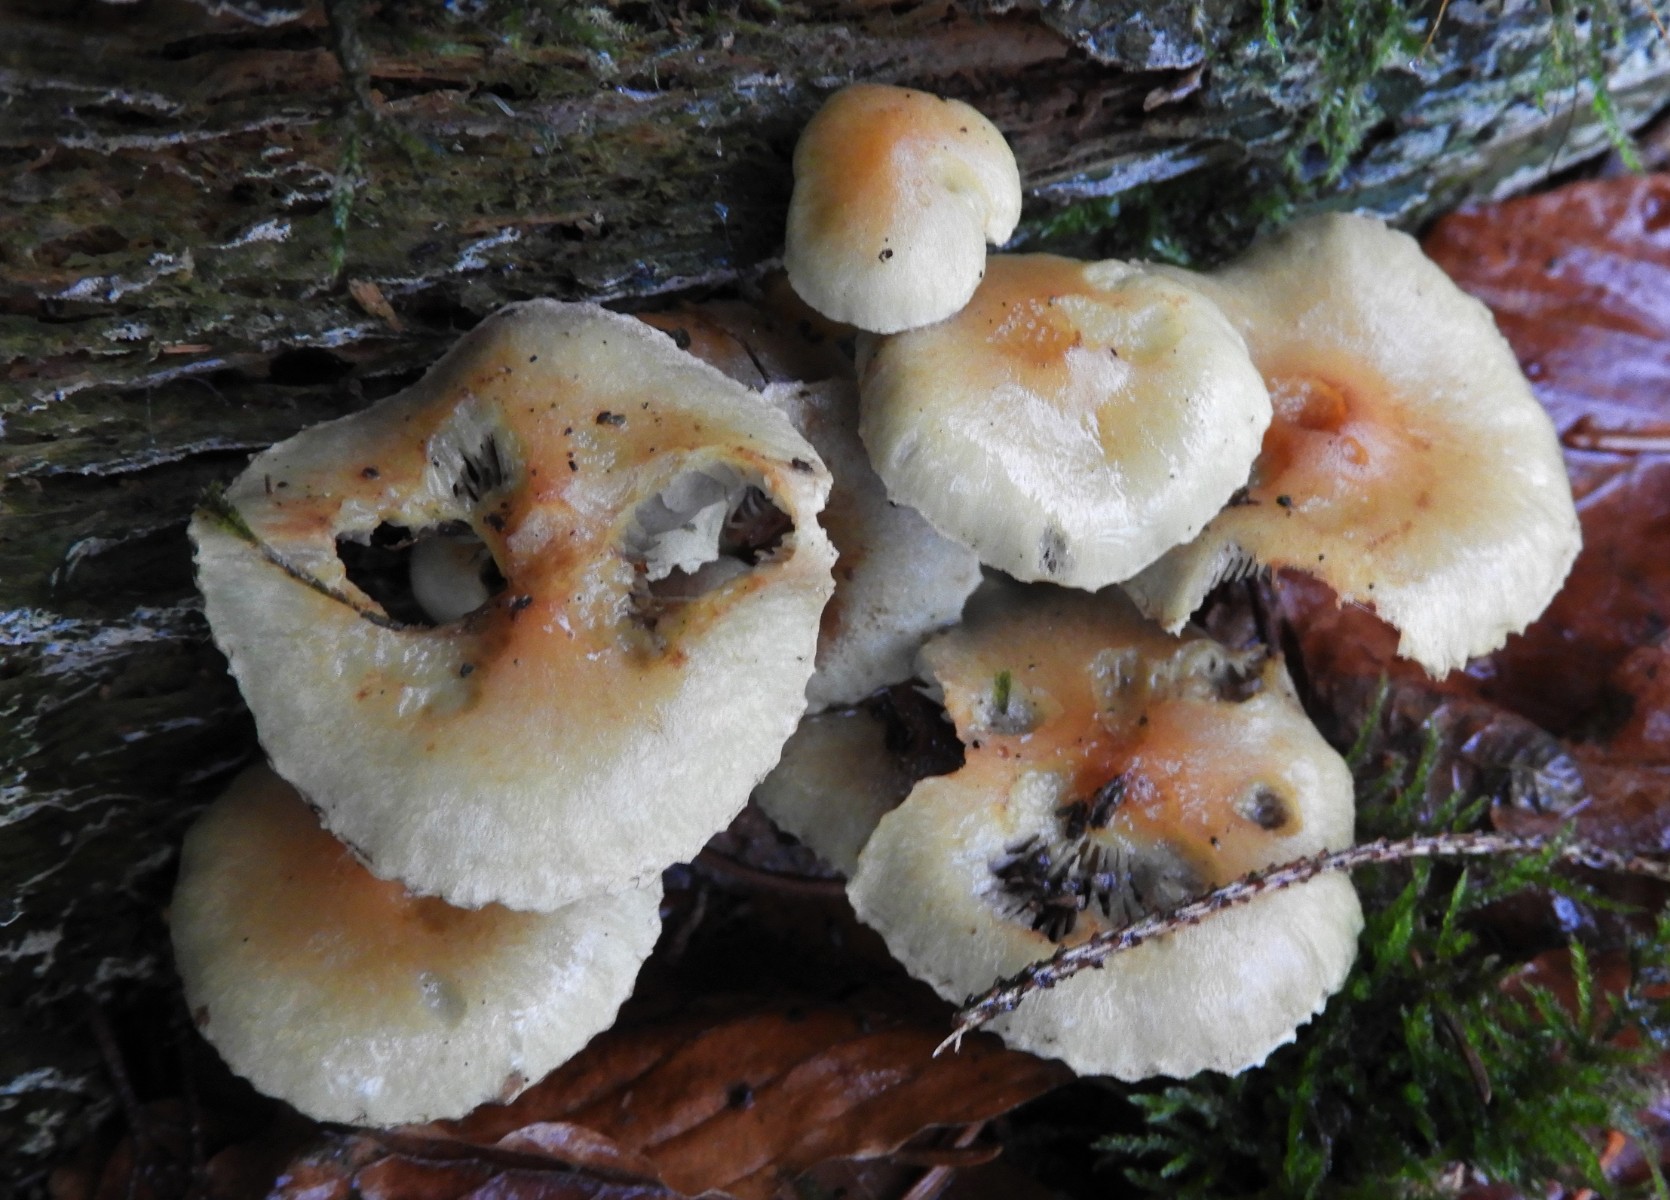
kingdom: Fungi
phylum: Basidiomycota
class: Agaricomycetes
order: Agaricales
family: Strophariaceae
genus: Hypholoma
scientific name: Hypholoma capnoides
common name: gran-svovlhat
